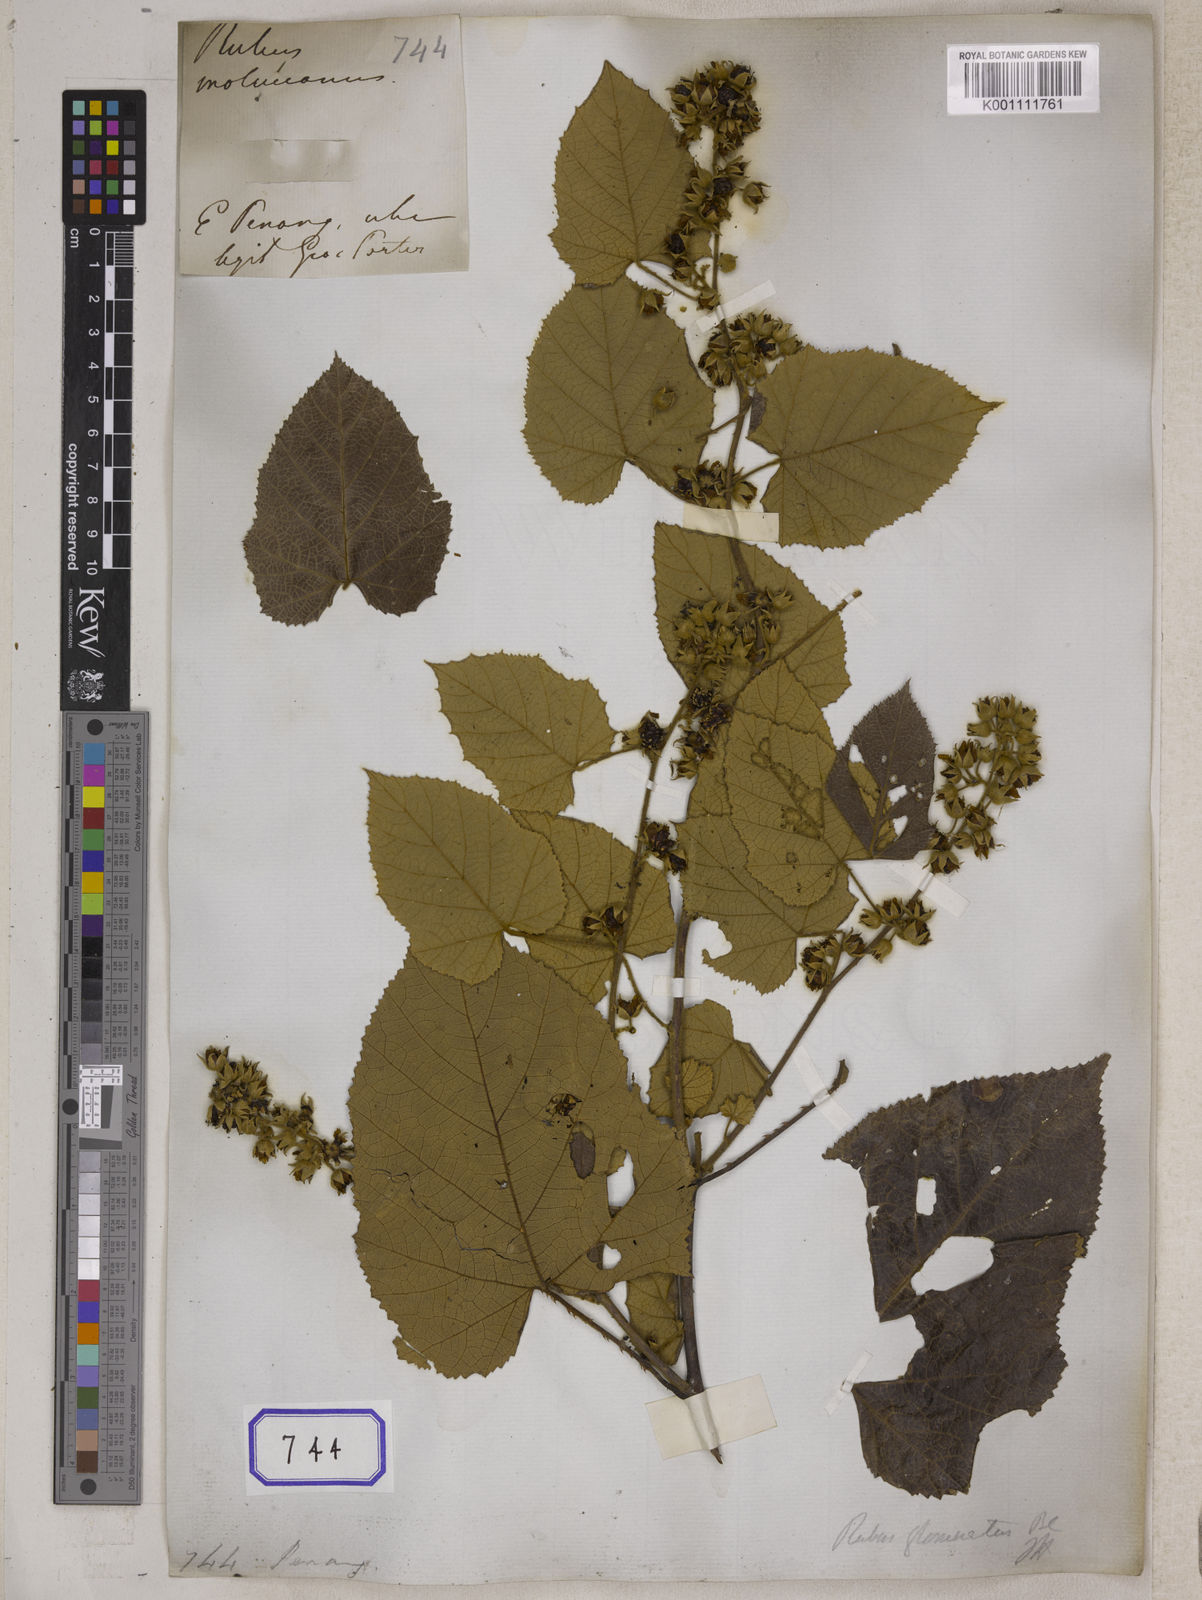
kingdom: Plantae
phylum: Tracheophyta
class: Magnoliopsida
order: Rosales
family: Rosaceae
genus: Rubus
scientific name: Rubus
